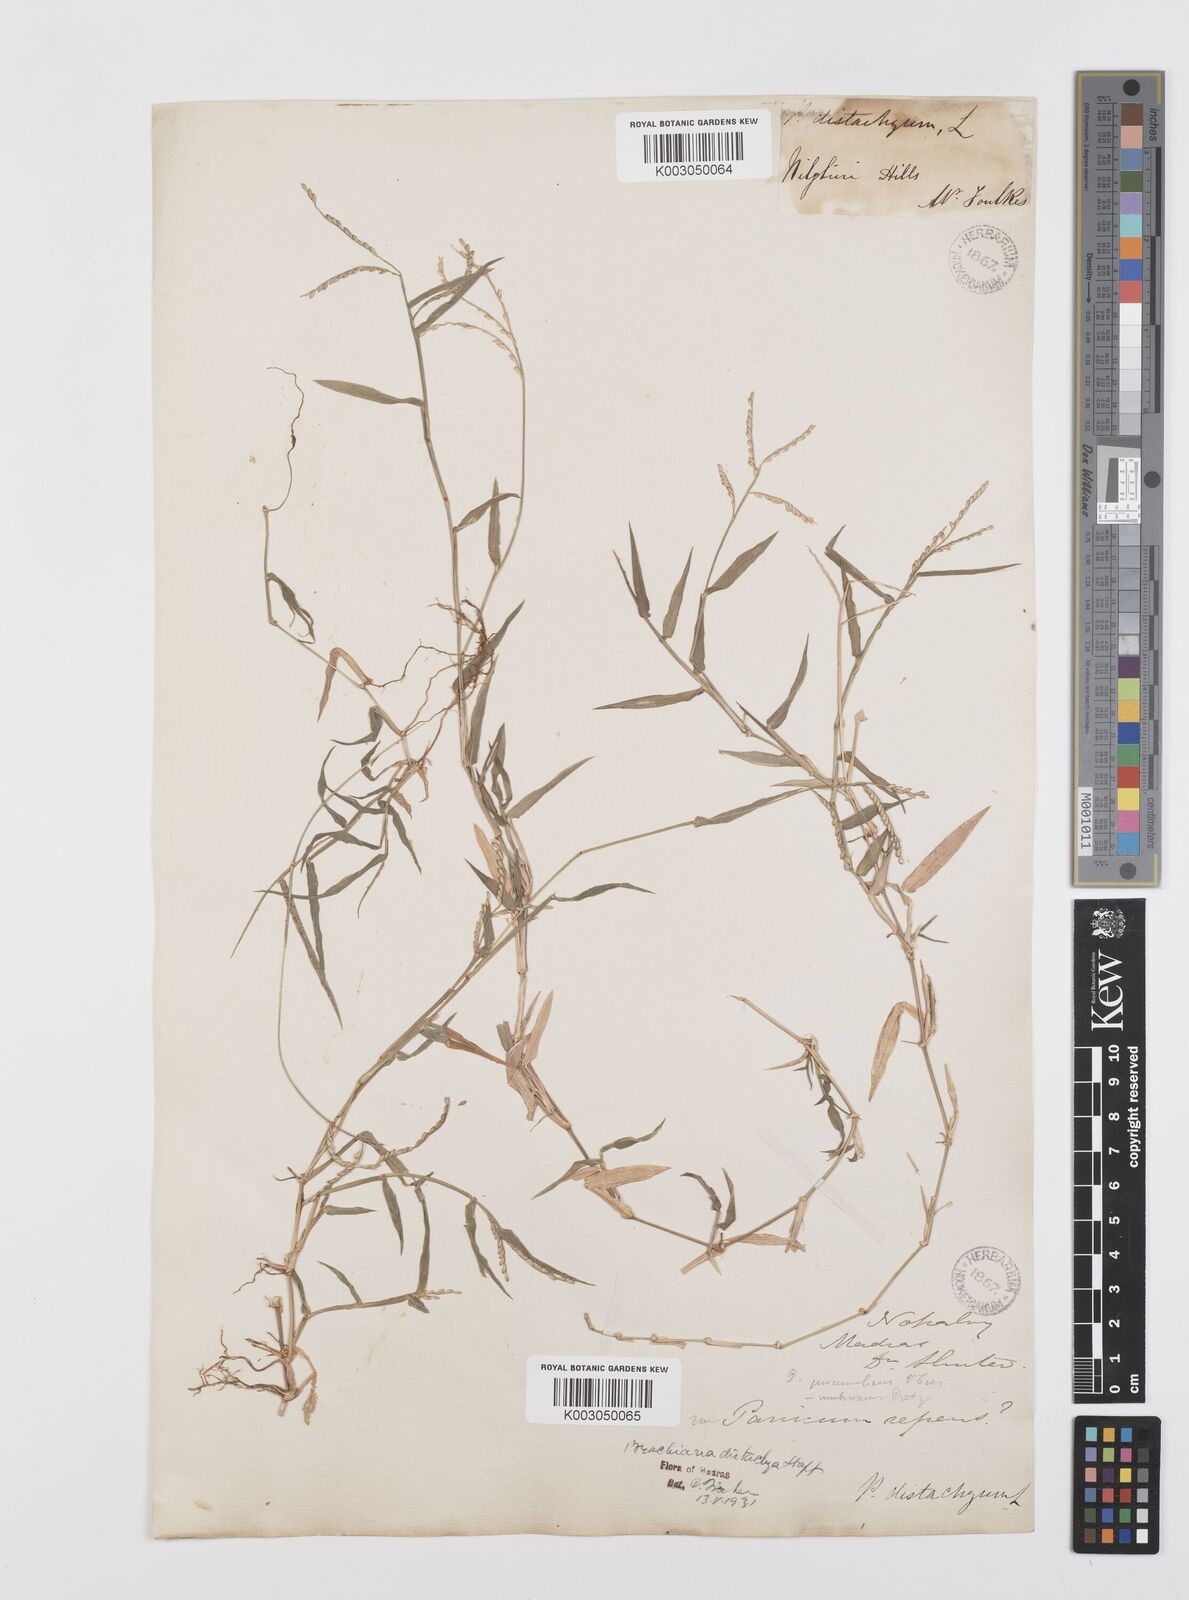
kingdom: Plantae
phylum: Tracheophyta
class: Liliopsida
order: Poales
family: Poaceae
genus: Urochloa
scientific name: Urochloa distachyos
